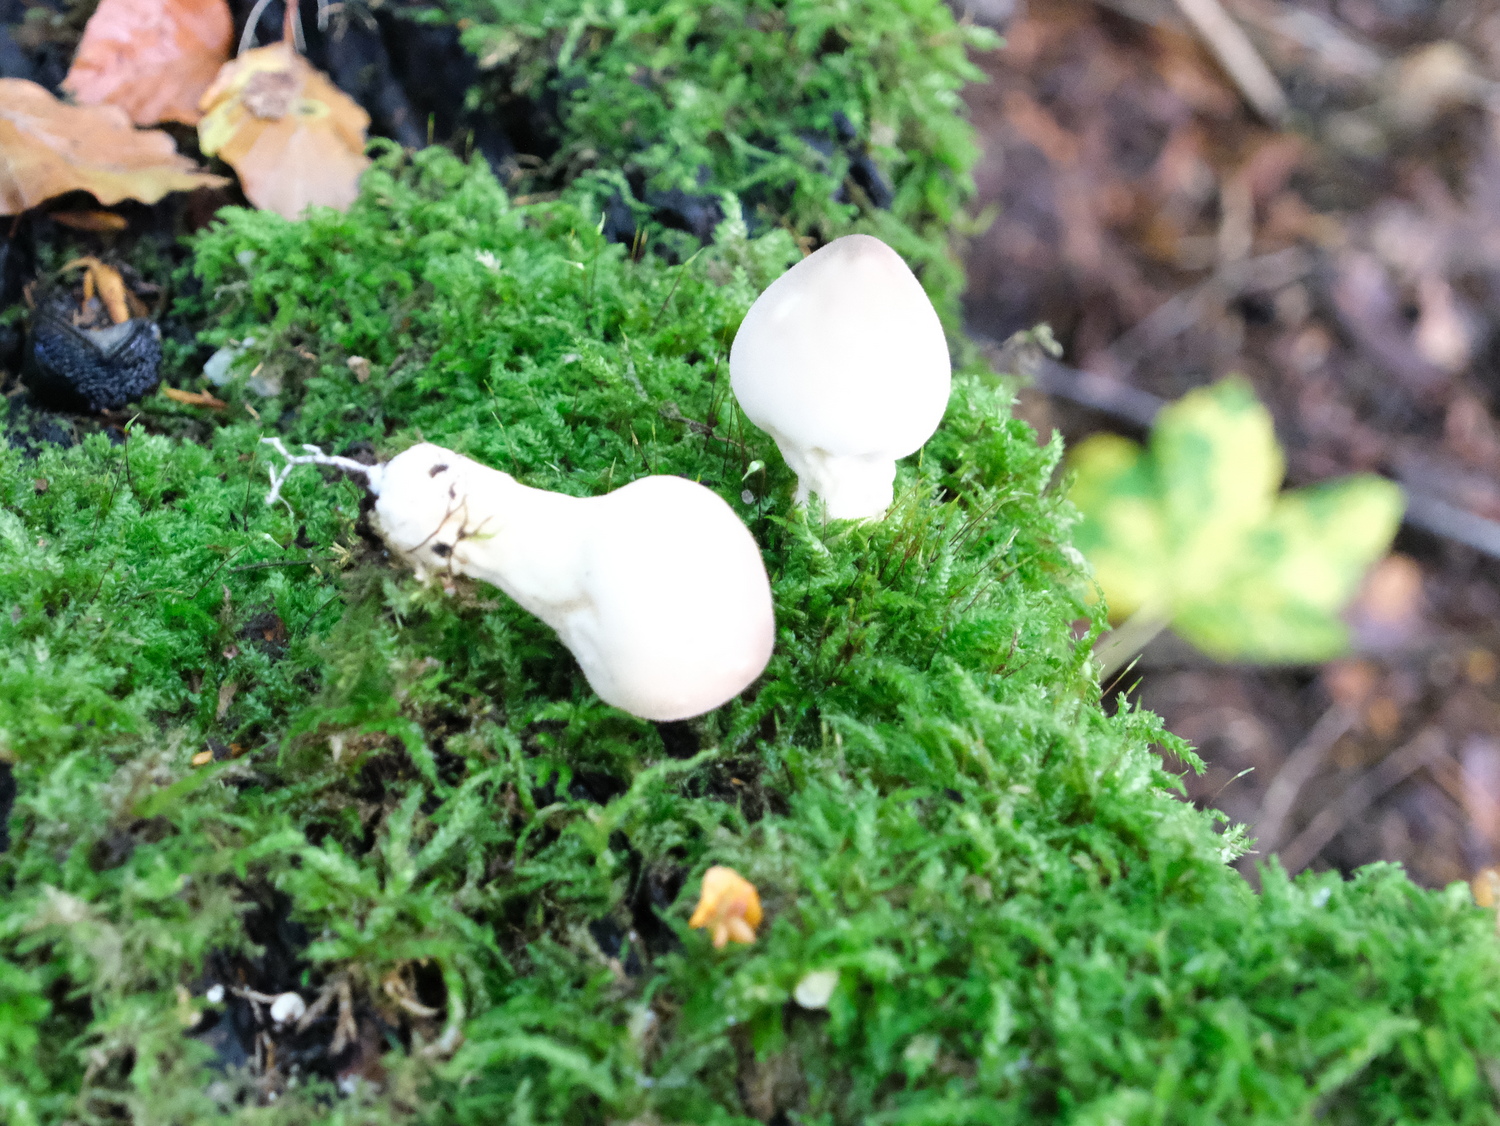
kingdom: Fungi
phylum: Basidiomycota
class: Agaricomycetes
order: Agaricales
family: Lycoperdaceae
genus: Apioperdon
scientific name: Apioperdon pyriforme
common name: pære-støvbold
